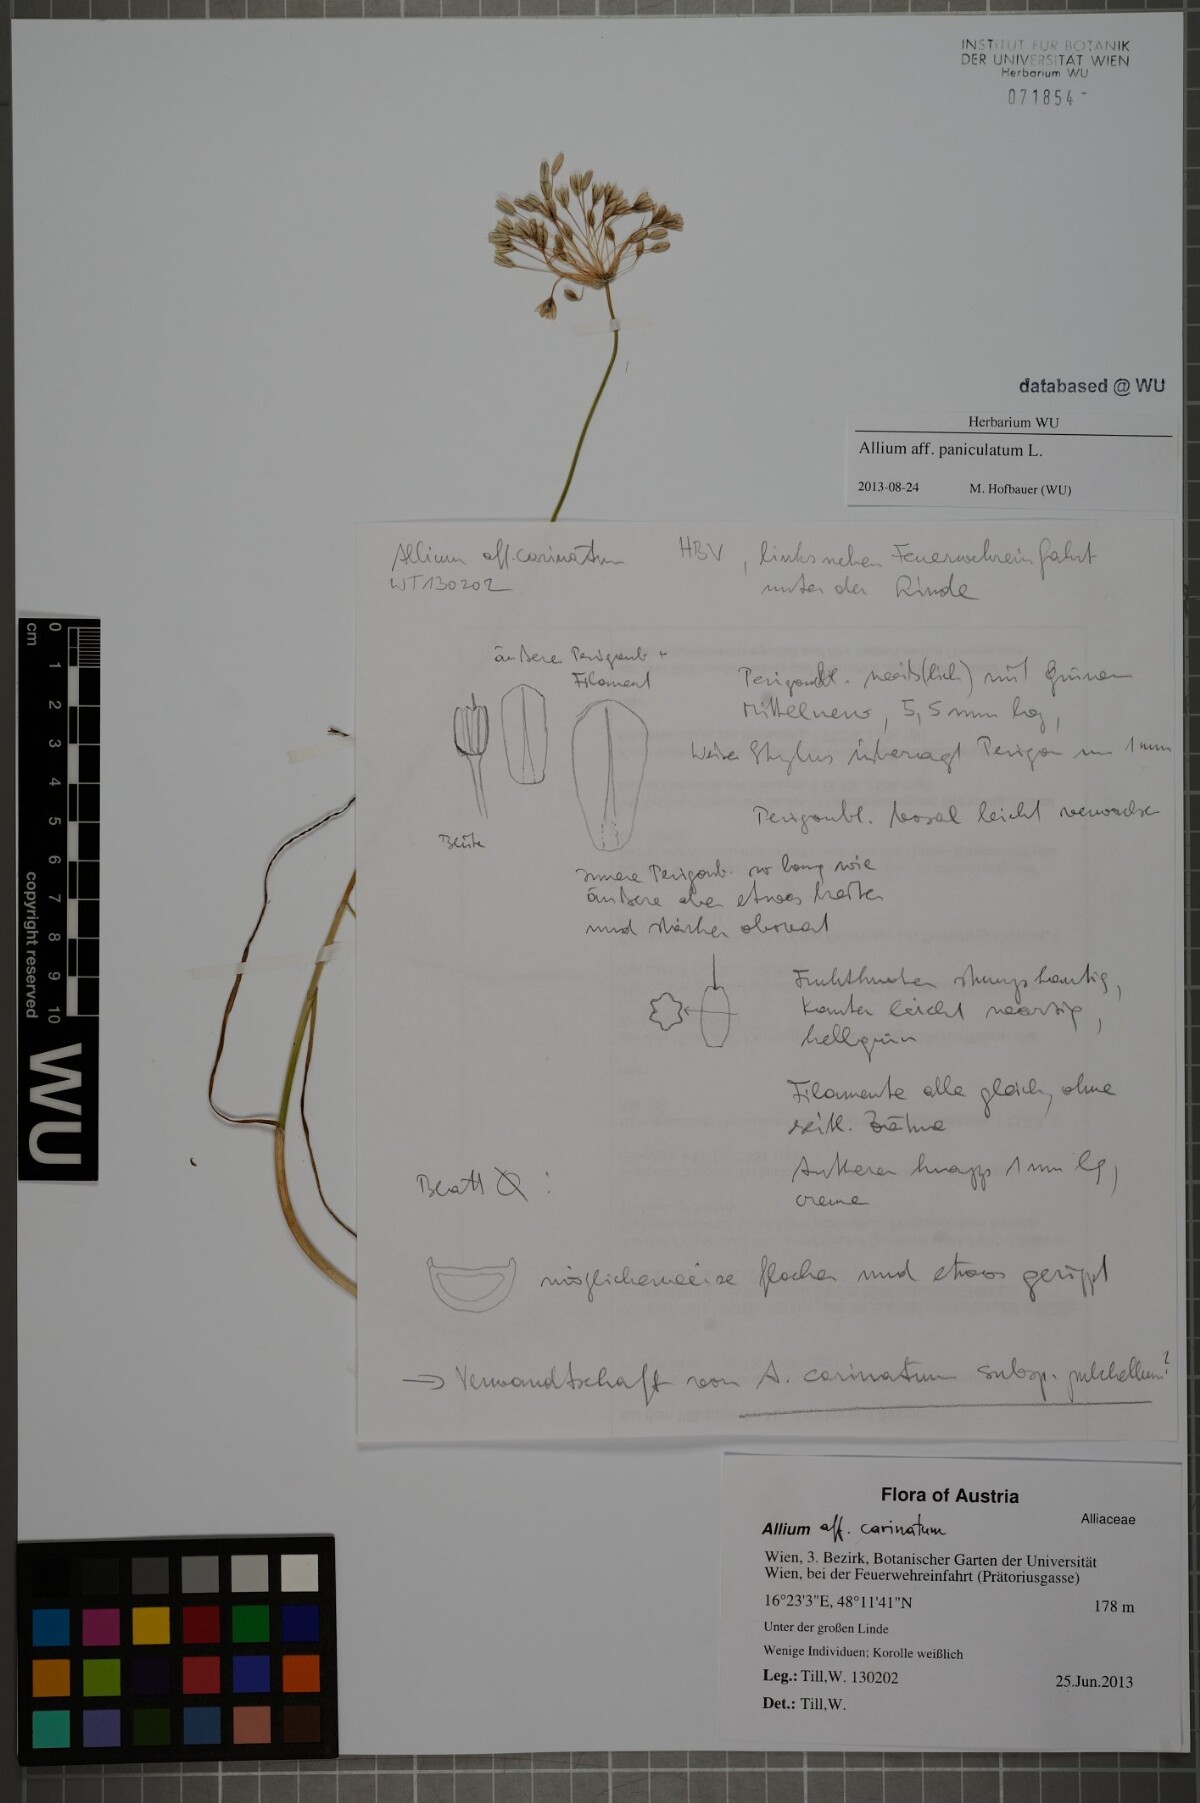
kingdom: Plantae
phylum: Tracheophyta
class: Liliopsida
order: Asparagales
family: Amaryllidaceae
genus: Allium
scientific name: Allium paniculatum
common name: Pale garlic
